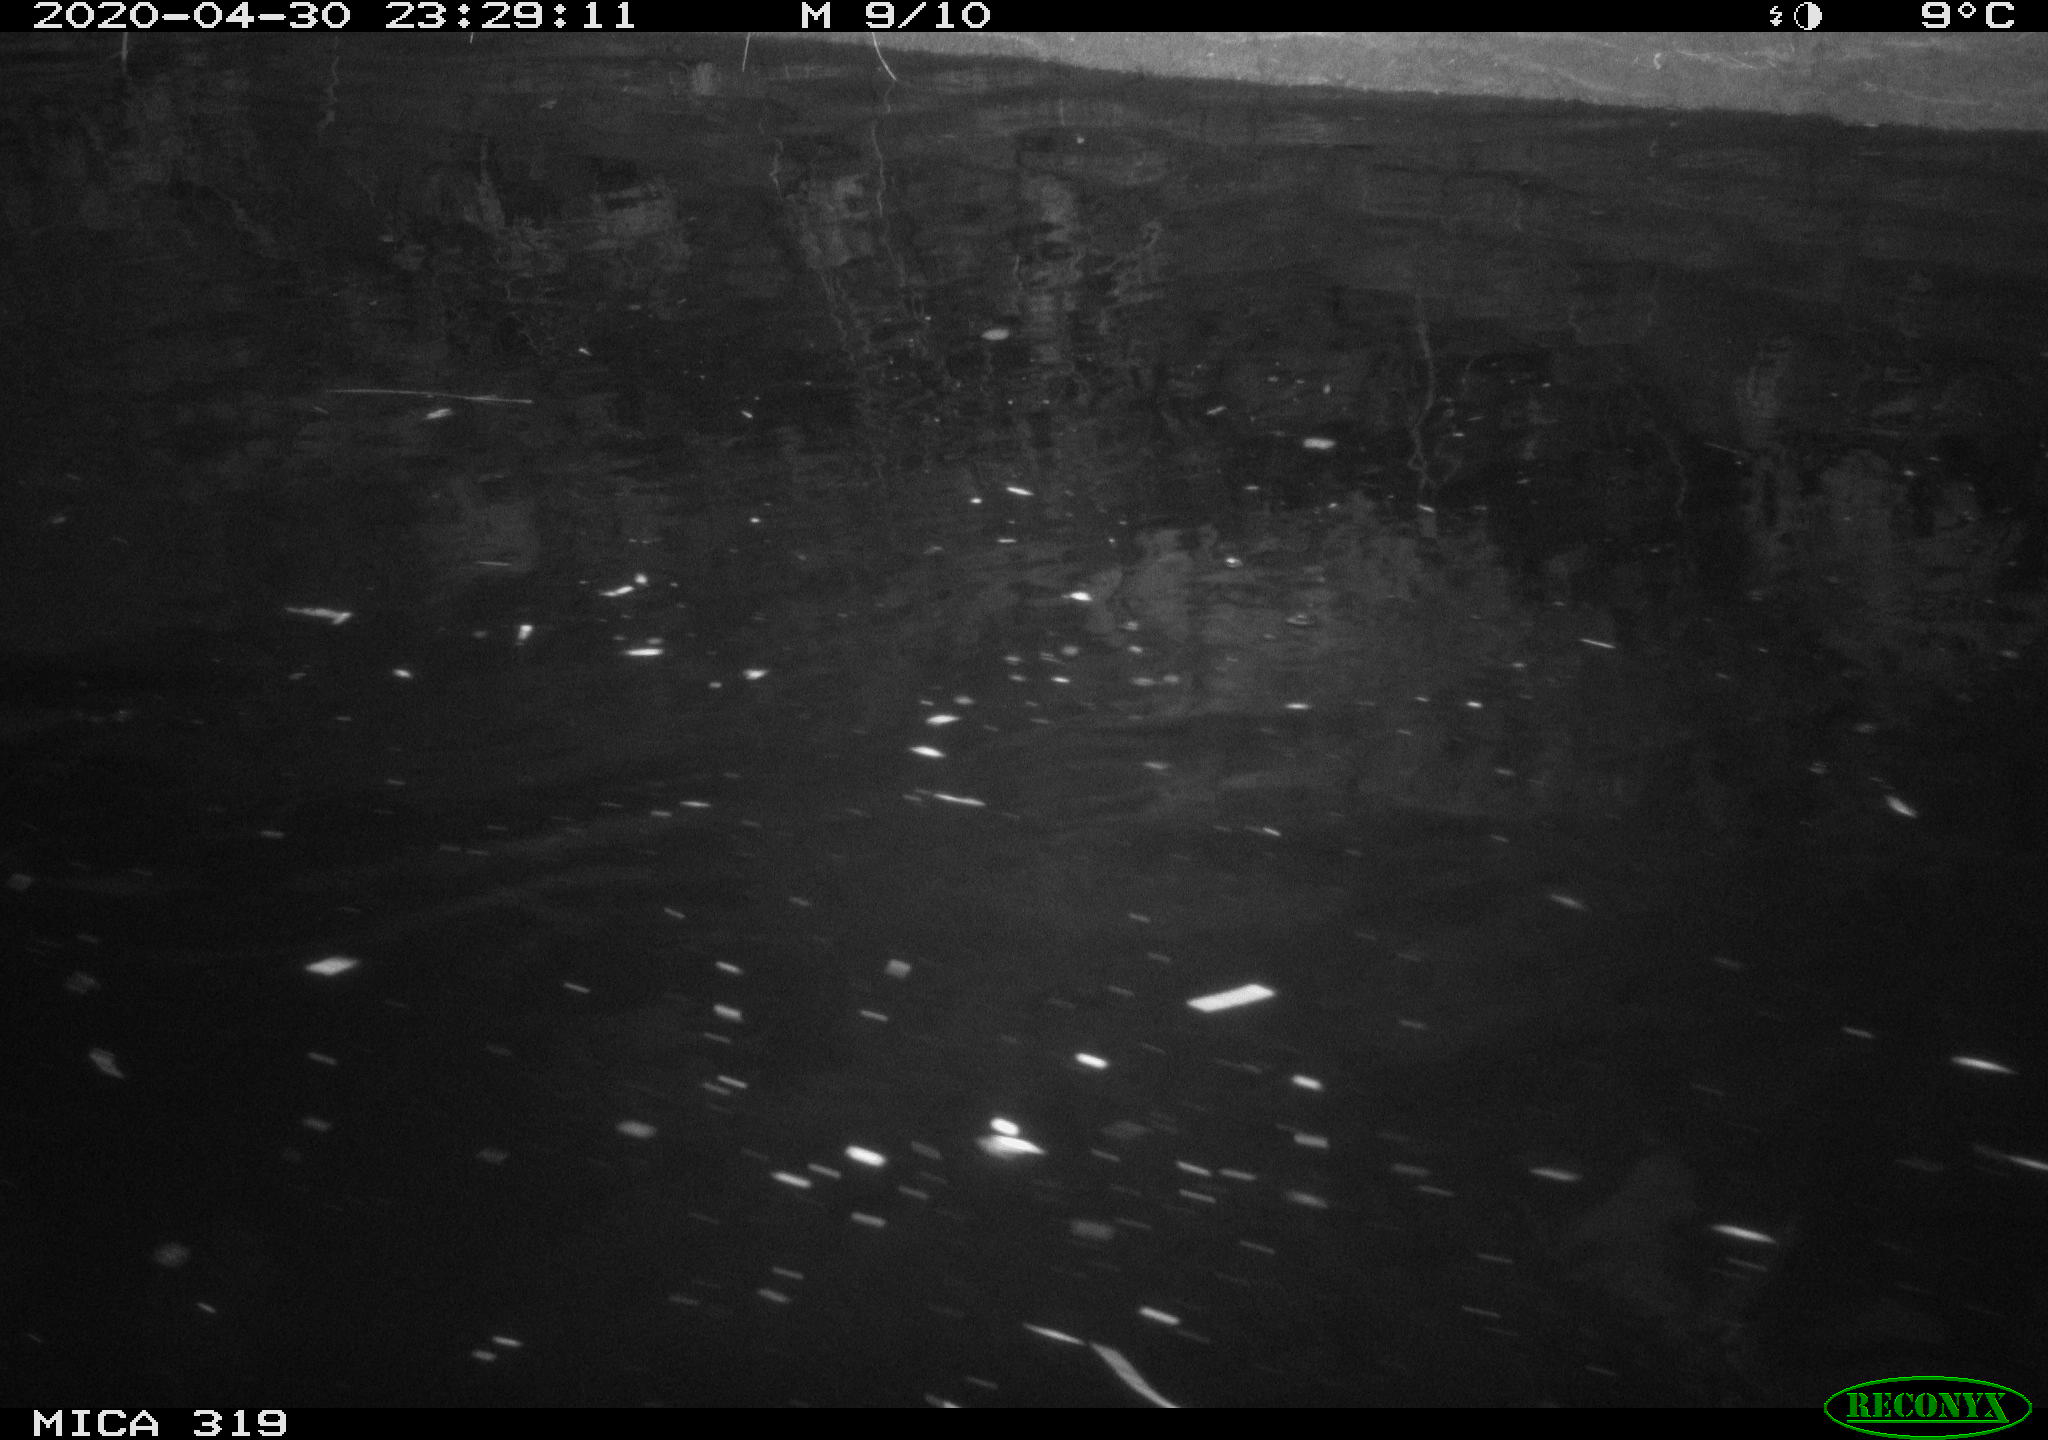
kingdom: Animalia
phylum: Chordata
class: Aves
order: Anseriformes
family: Anatidae
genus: Anas
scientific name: Anas platyrhynchos
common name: Mallard
